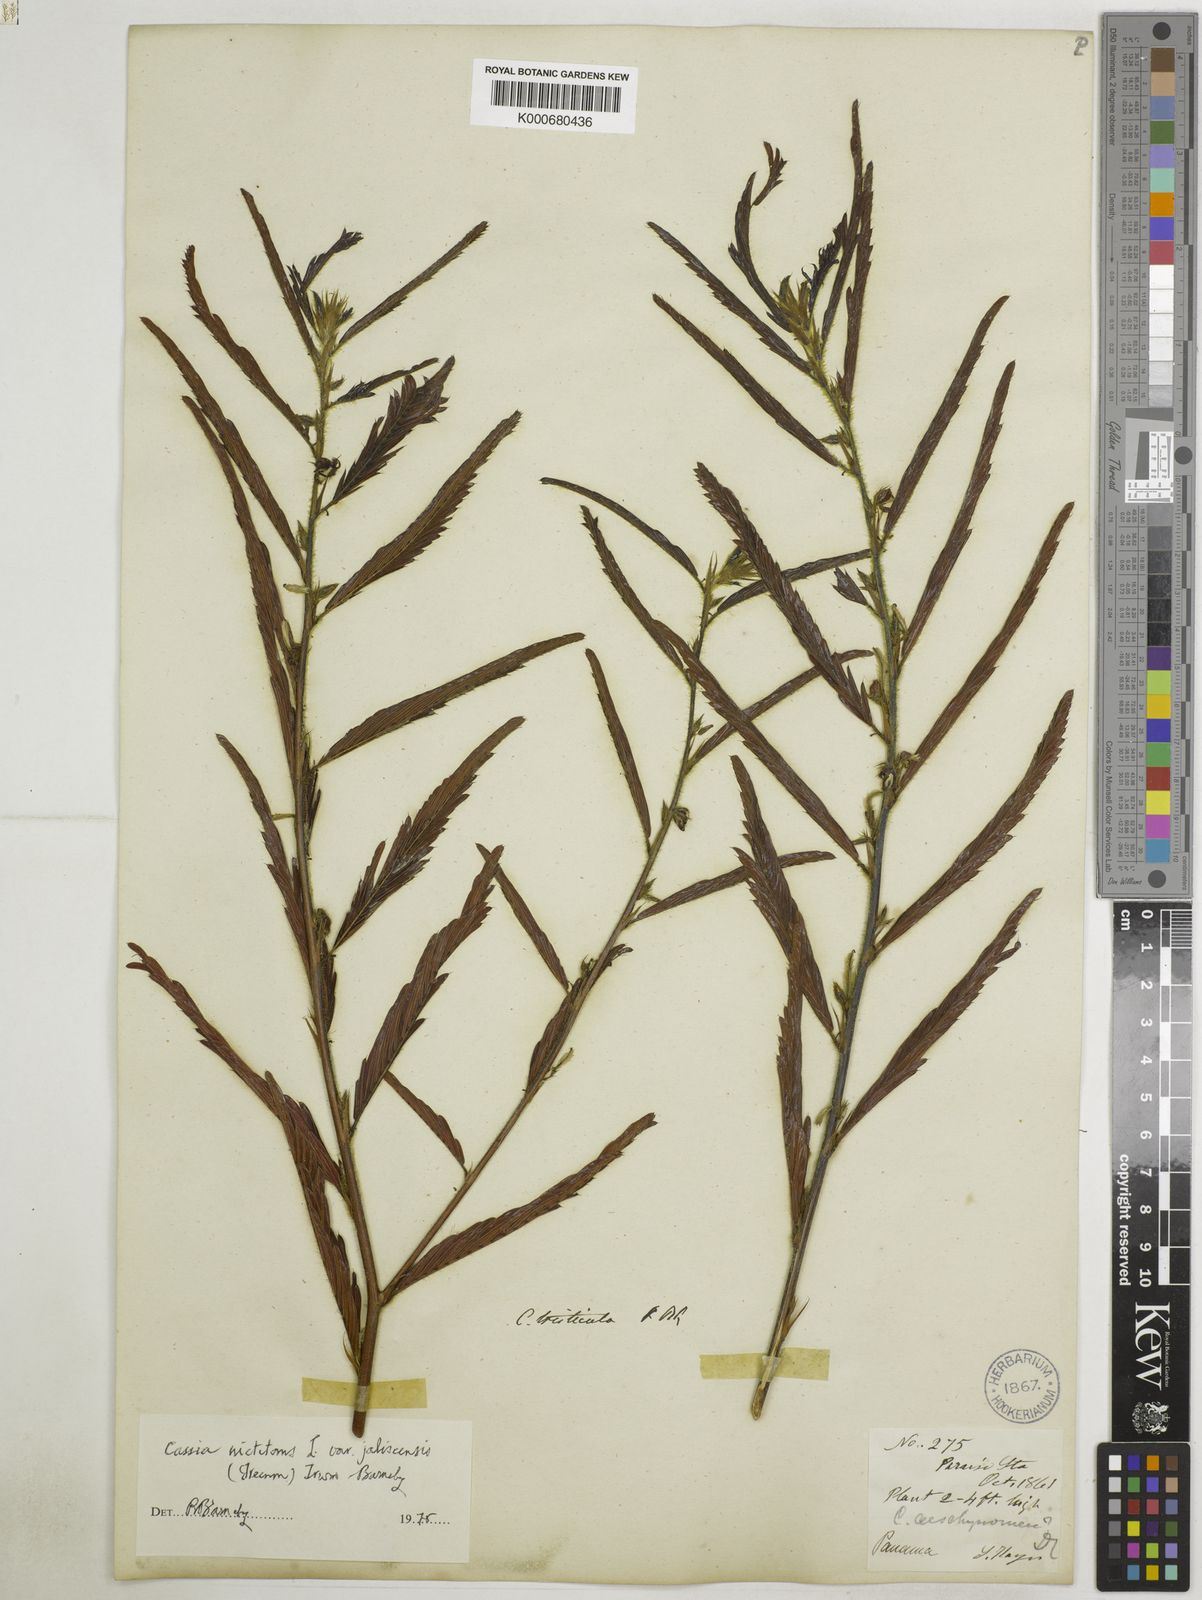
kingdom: Plantae
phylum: Tracheophyta
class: Magnoliopsida
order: Fabales
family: Fabaceae
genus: Chamaecrista
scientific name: Chamaecrista nictitans
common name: Sensitive cassia
